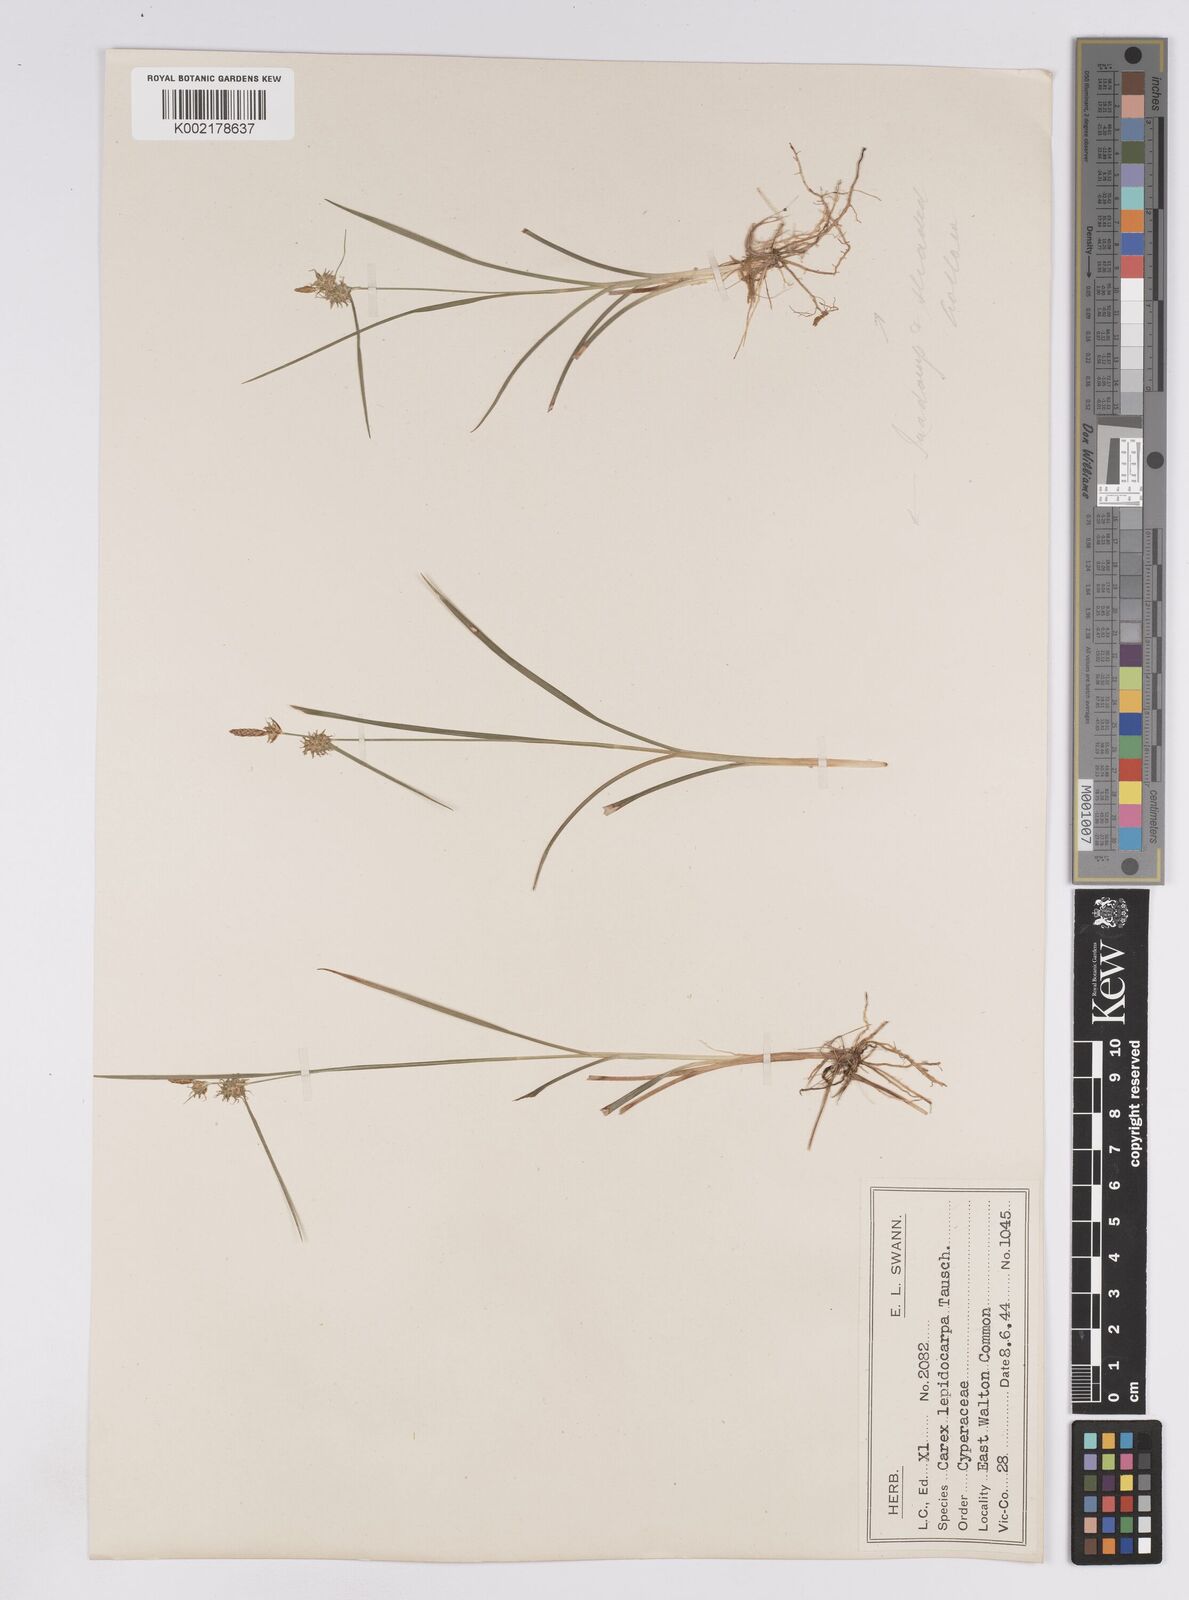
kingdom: Plantae
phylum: Tracheophyta
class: Liliopsida
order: Poales
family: Cyperaceae
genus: Carex
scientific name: Carex lepidocarpa
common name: Long-stalked yellow-sedge
